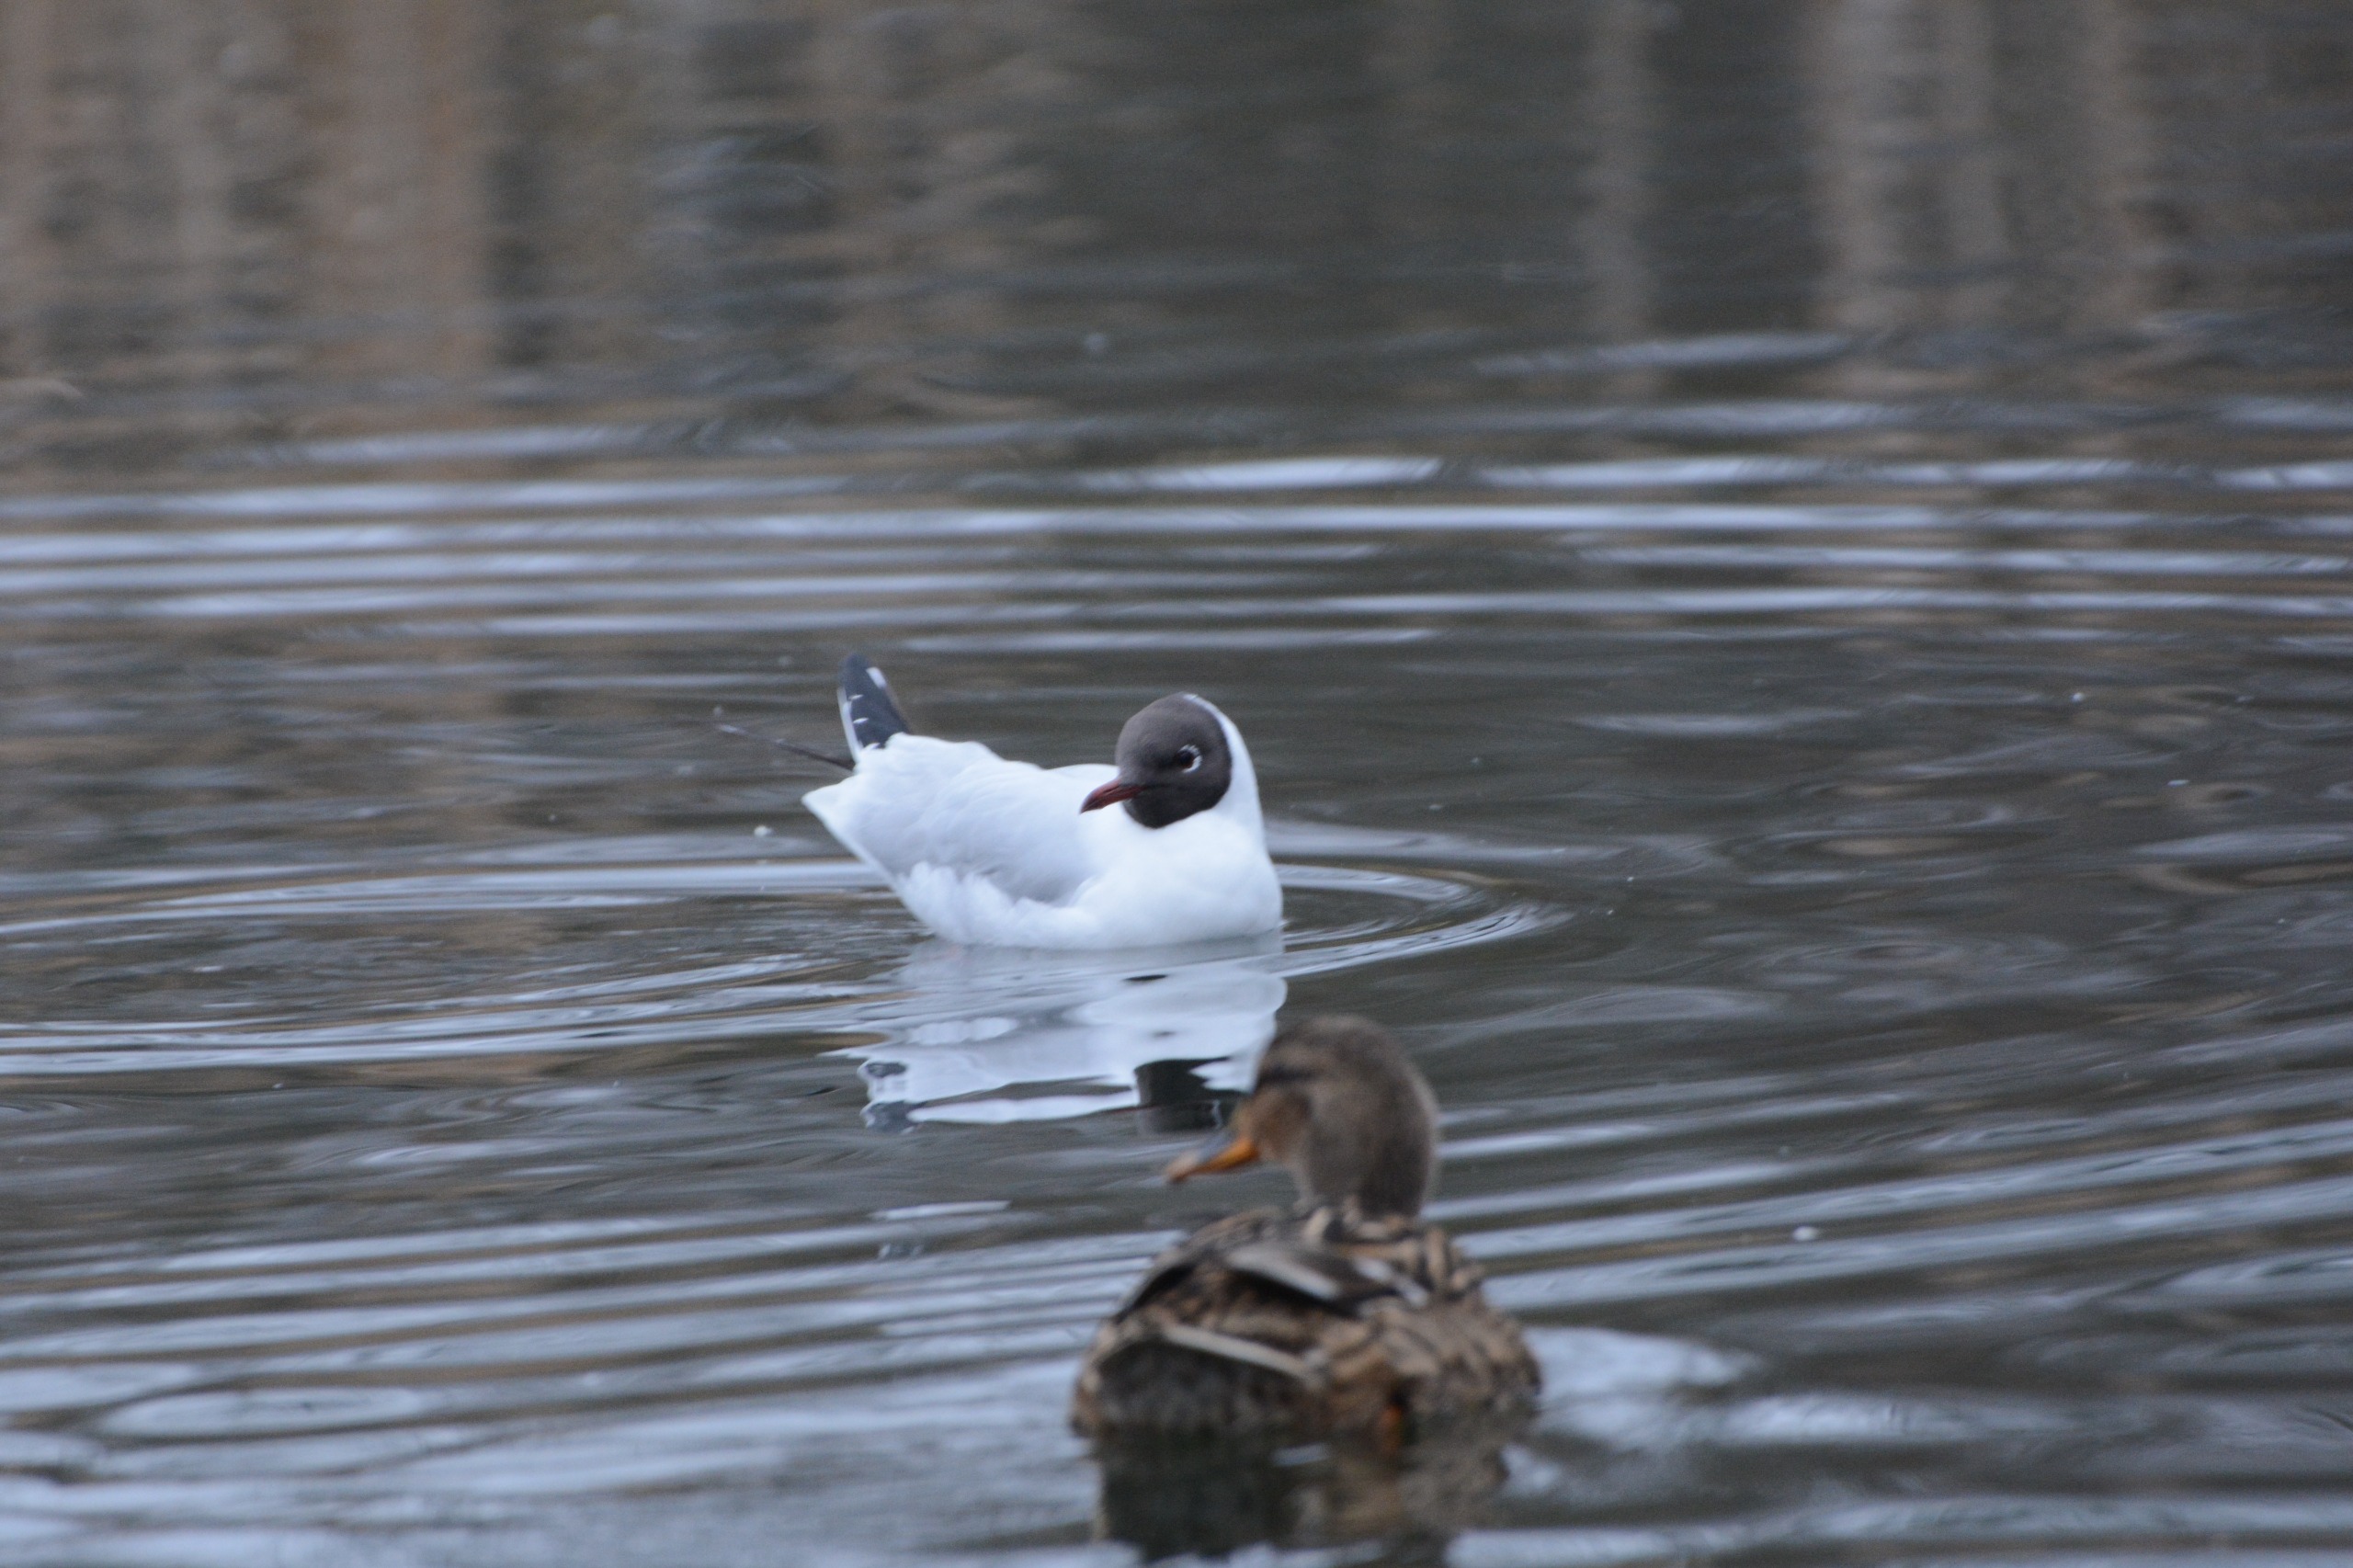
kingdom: Animalia
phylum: Chordata
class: Aves
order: Charadriiformes
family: Laridae
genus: Chroicocephalus
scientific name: Chroicocephalus ridibundus
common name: Hættemåge
